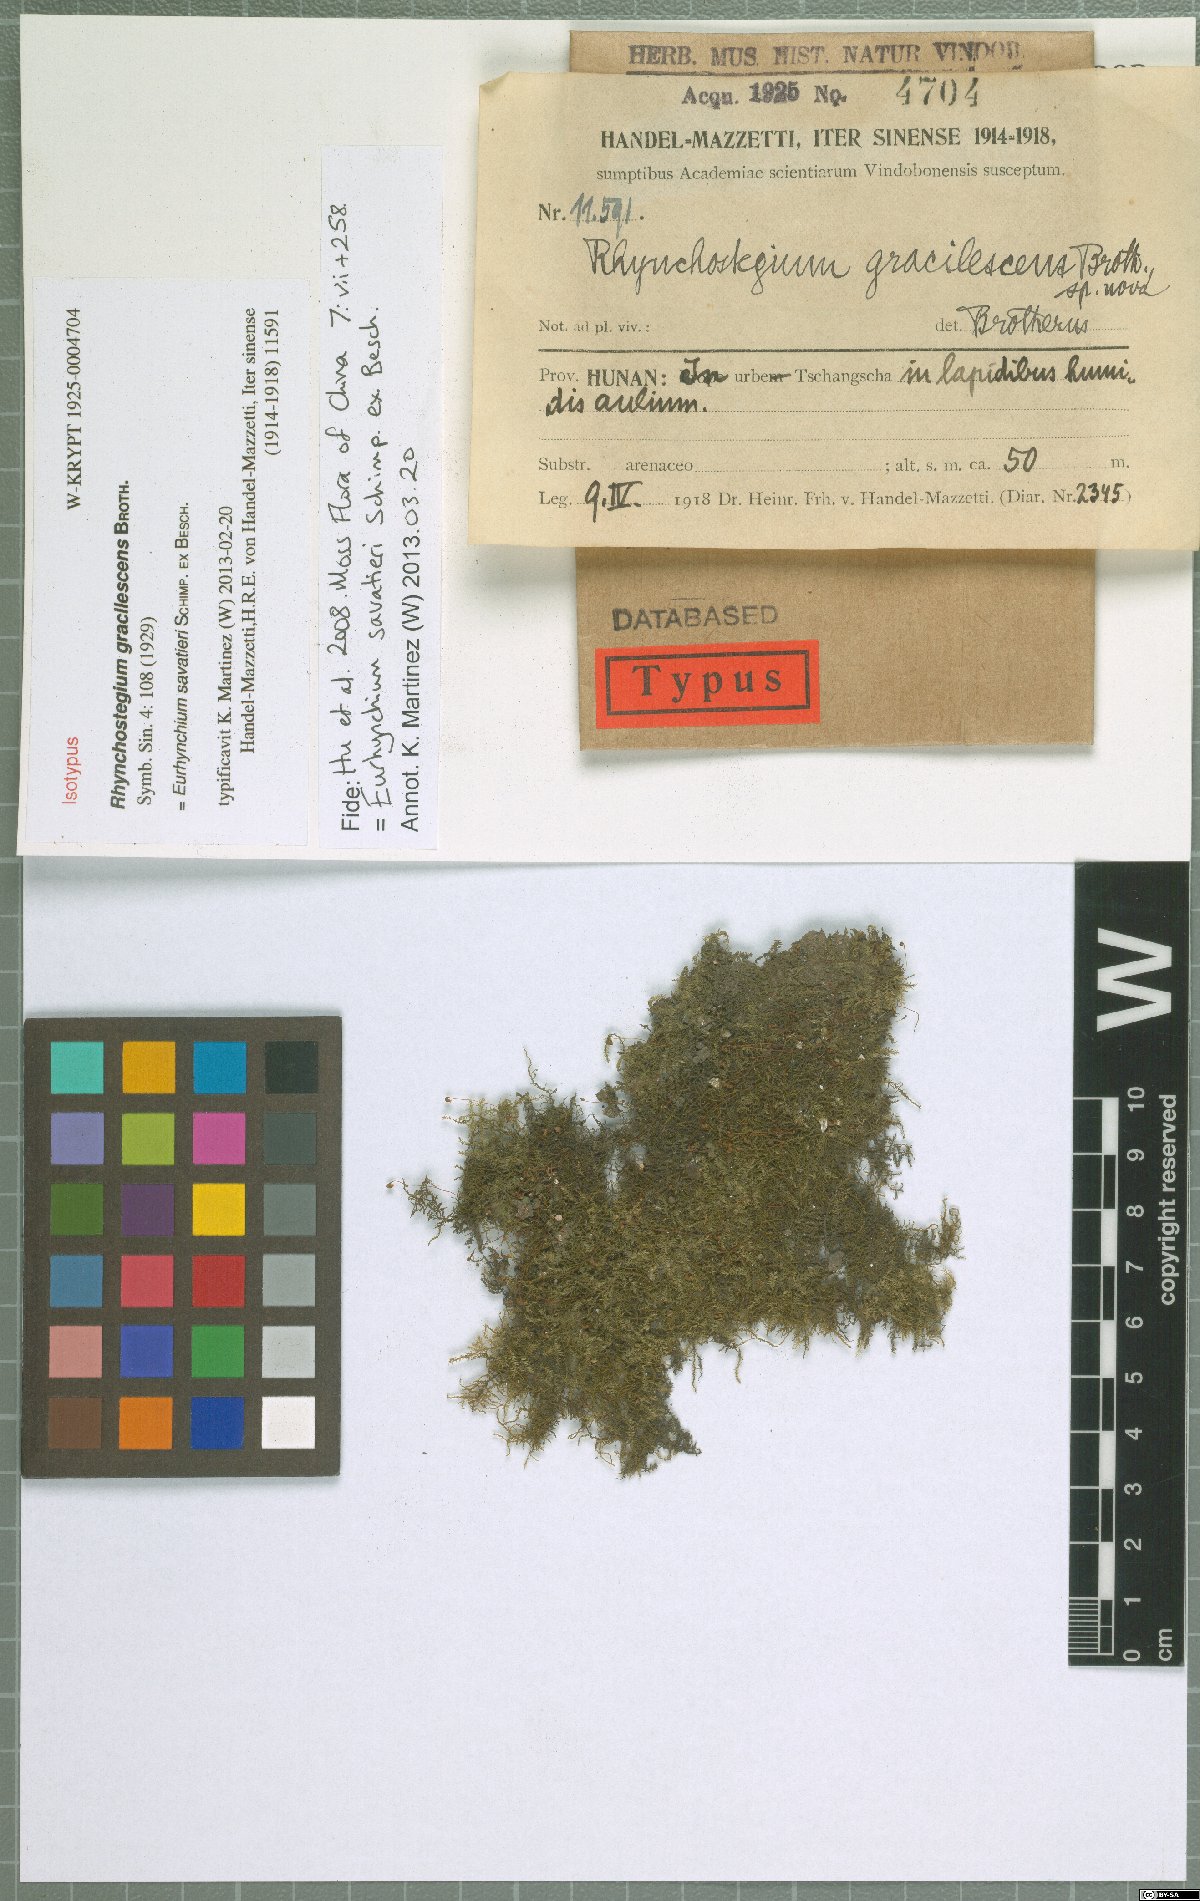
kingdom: Plantae
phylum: Bryophyta
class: Bryopsida
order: Hypnales
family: Brachytheciaceae
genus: Oxyrrhynchium
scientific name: Oxyrrhynchium savatieri
